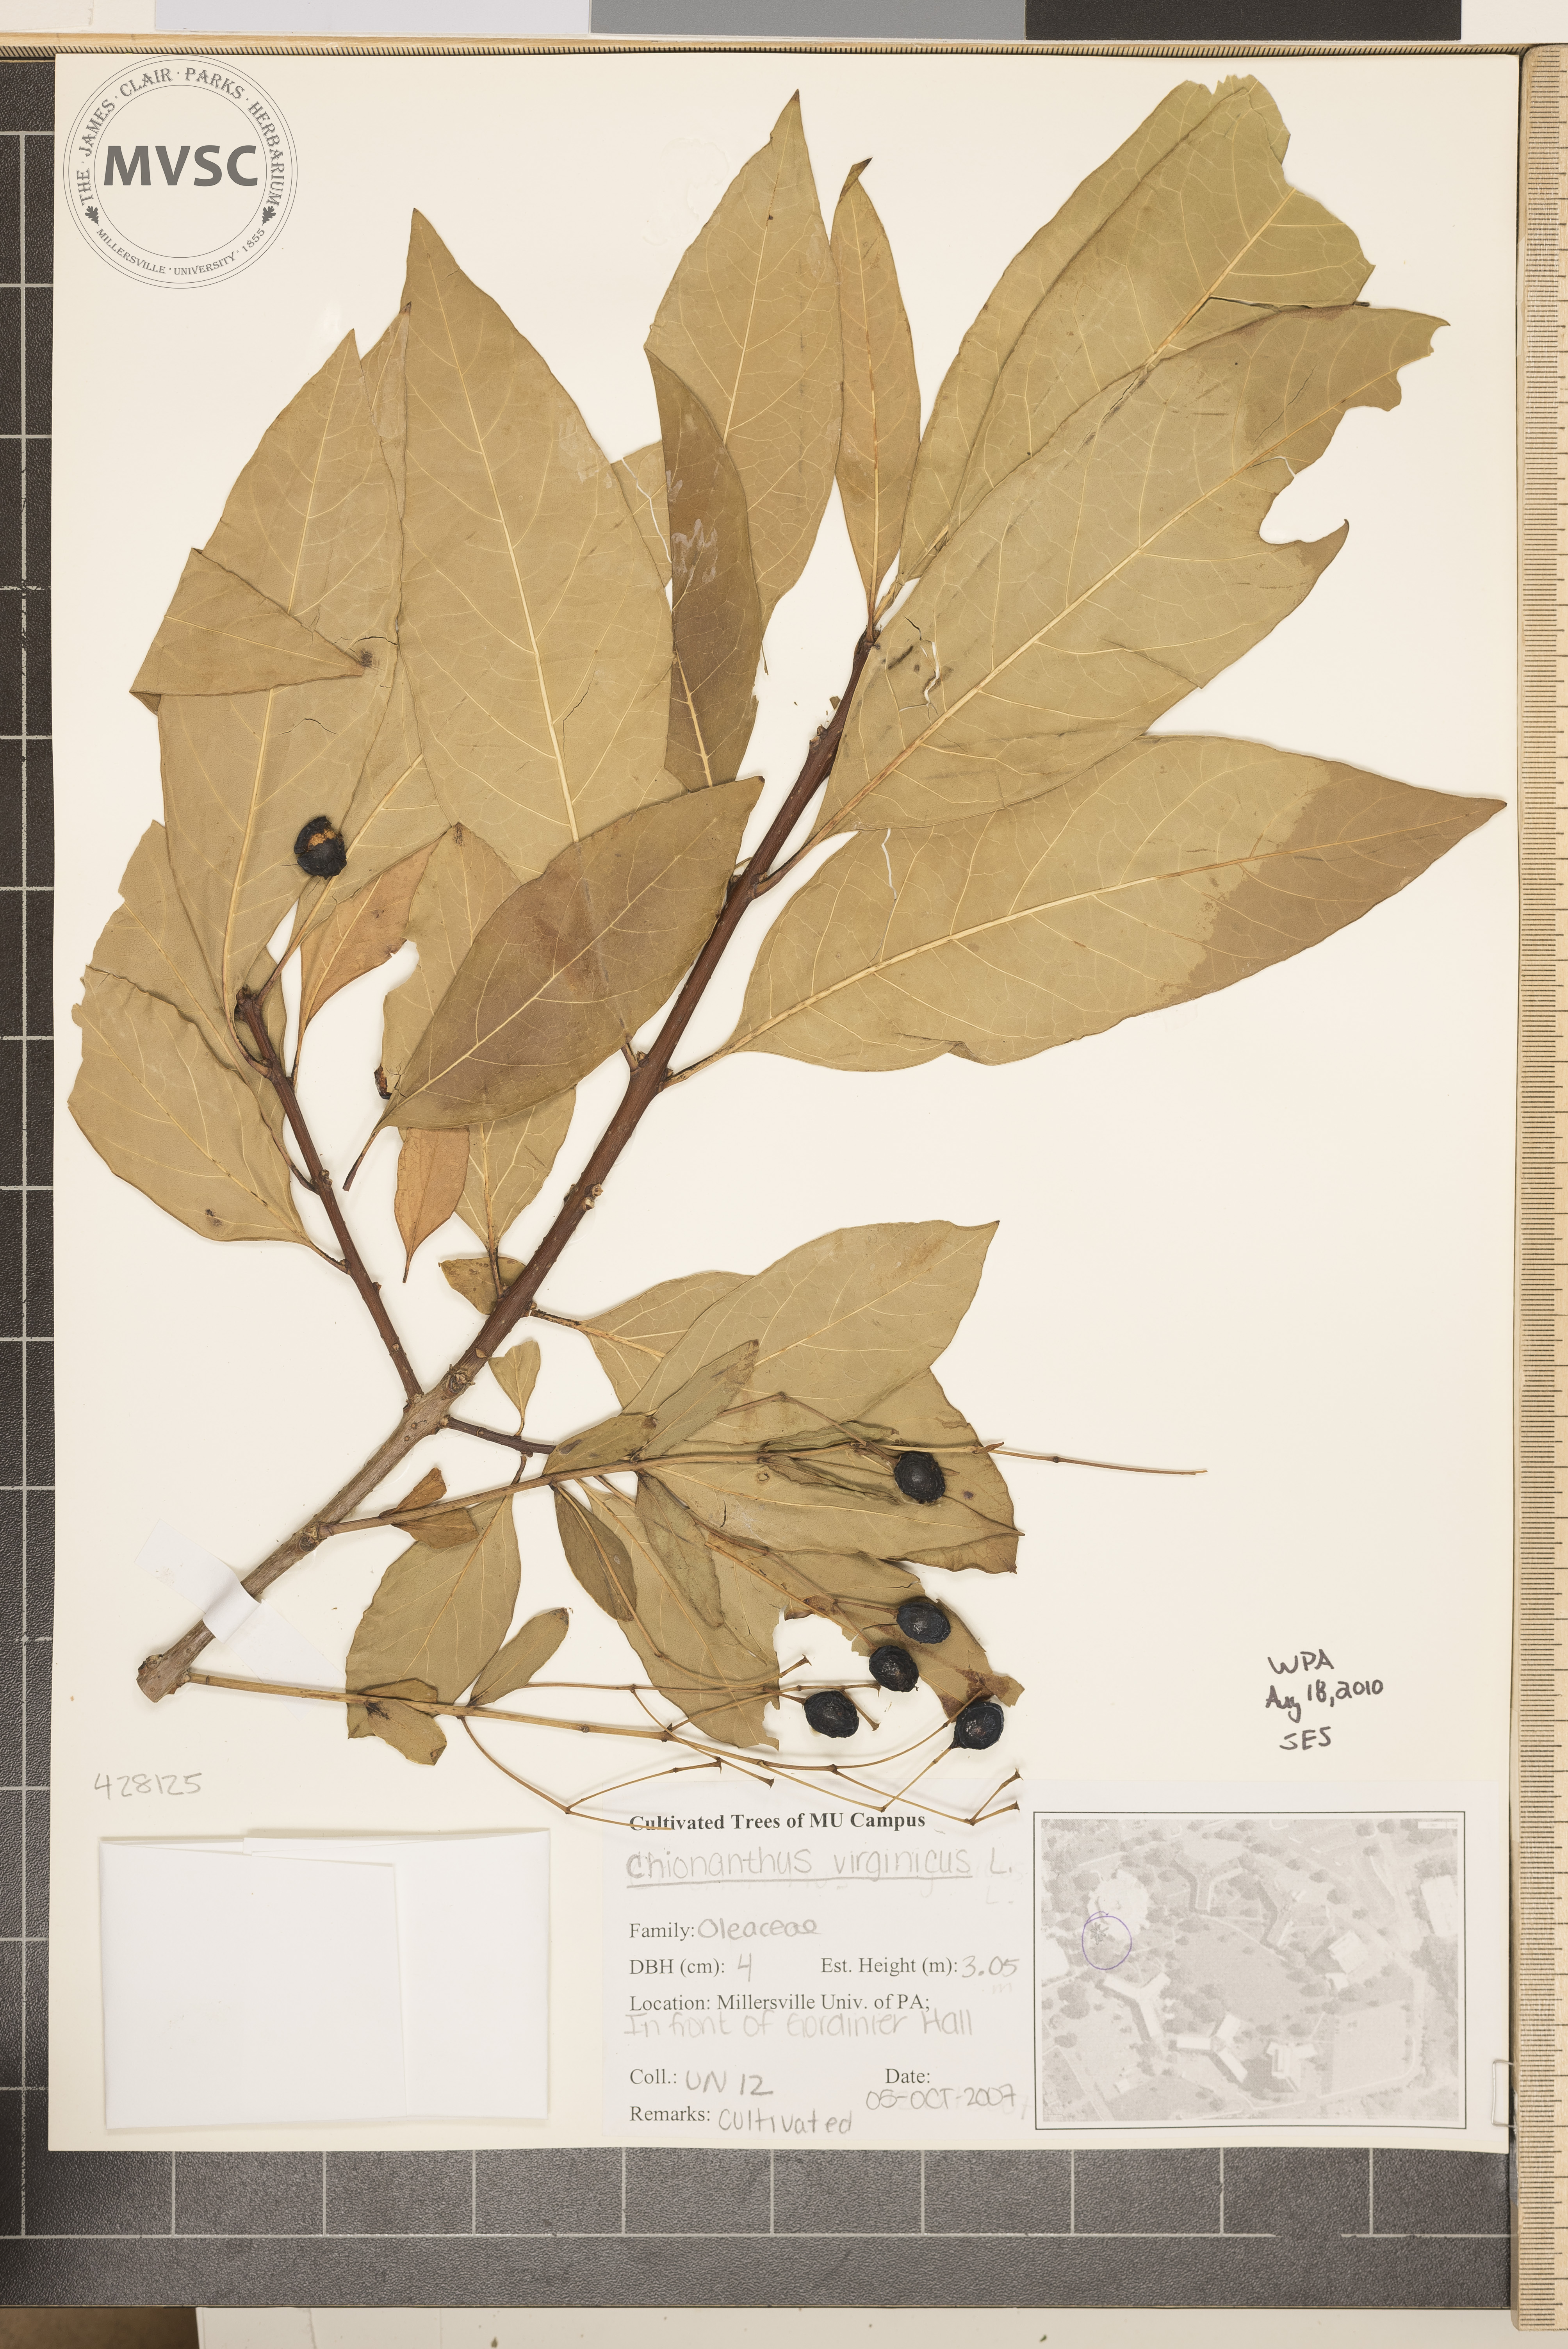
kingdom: Plantae
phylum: Tracheophyta
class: Magnoliopsida
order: Lamiales
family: Oleaceae
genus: Chionanthus
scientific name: Chionanthus virginicus
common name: Fringetree
